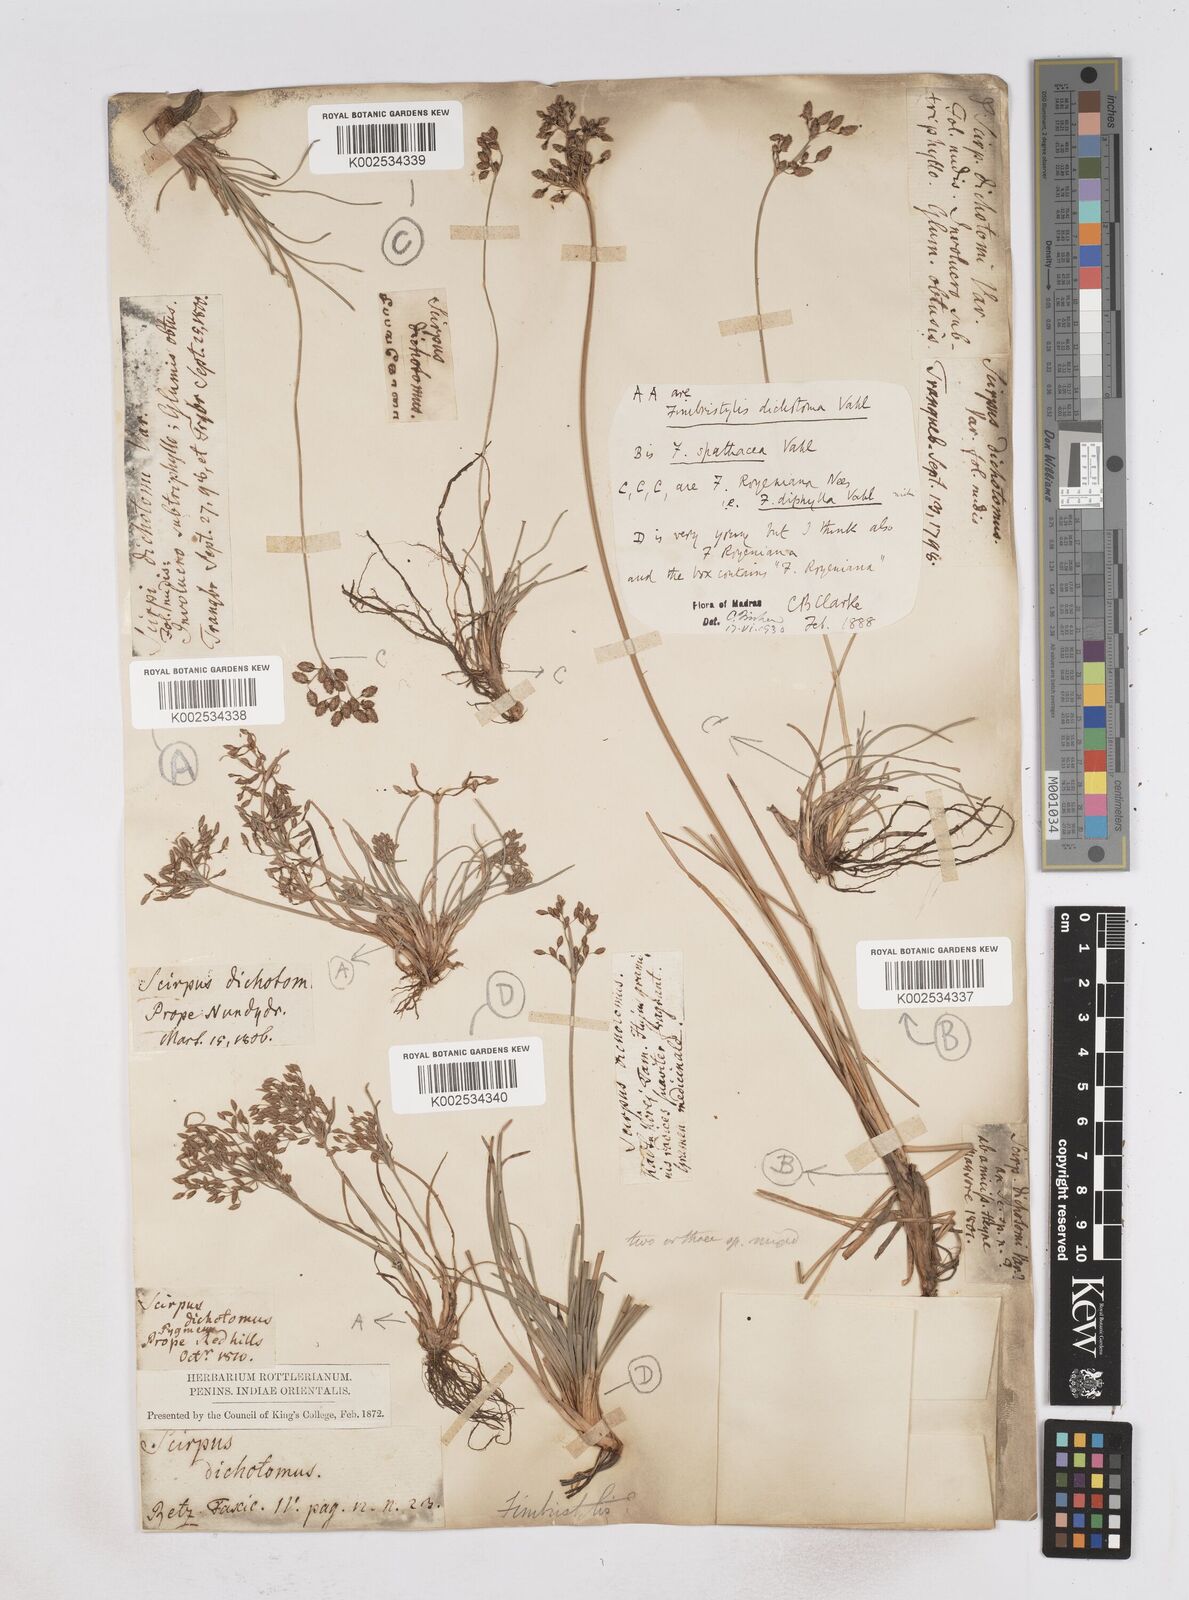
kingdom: Plantae
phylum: Tracheophyta
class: Liliopsida
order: Poales
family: Cyperaceae
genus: Fimbristylis
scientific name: Fimbristylis cymosa
